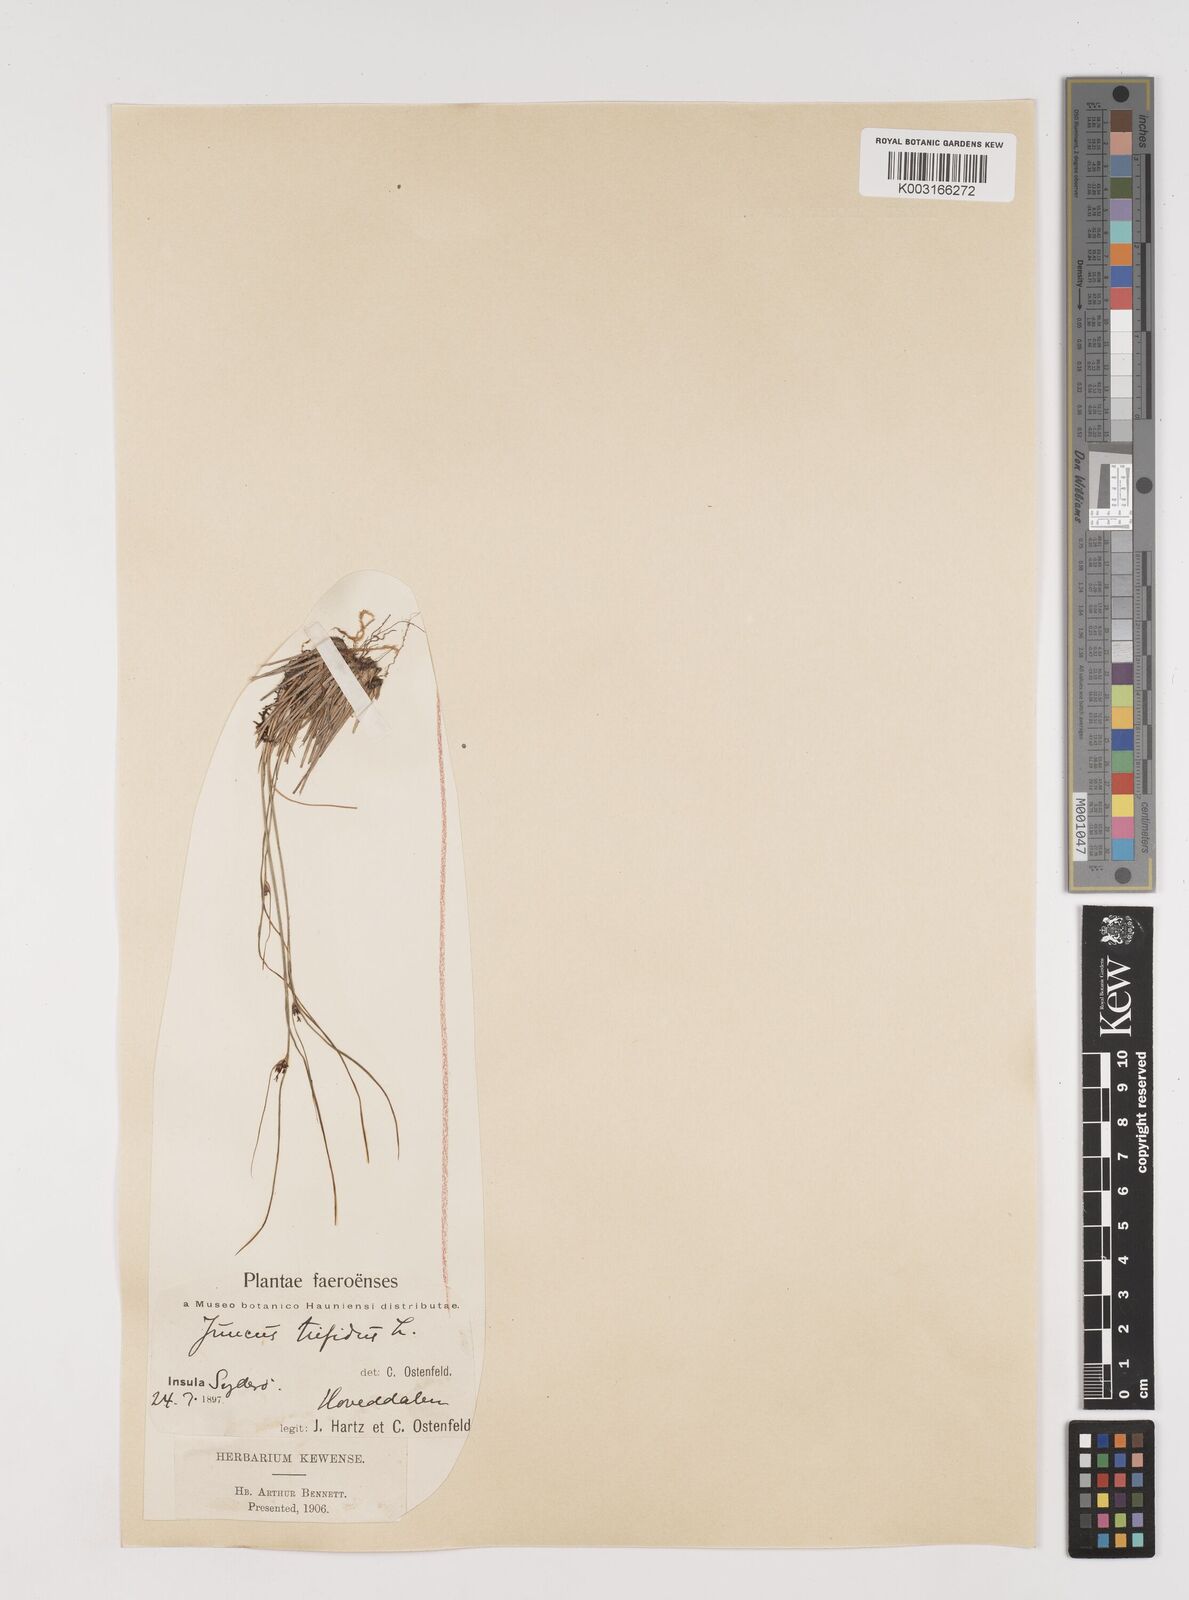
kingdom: Plantae
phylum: Tracheophyta
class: Liliopsida
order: Poales
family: Juncaceae
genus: Oreojuncus
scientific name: Oreojuncus trifidus
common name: Highland rush
